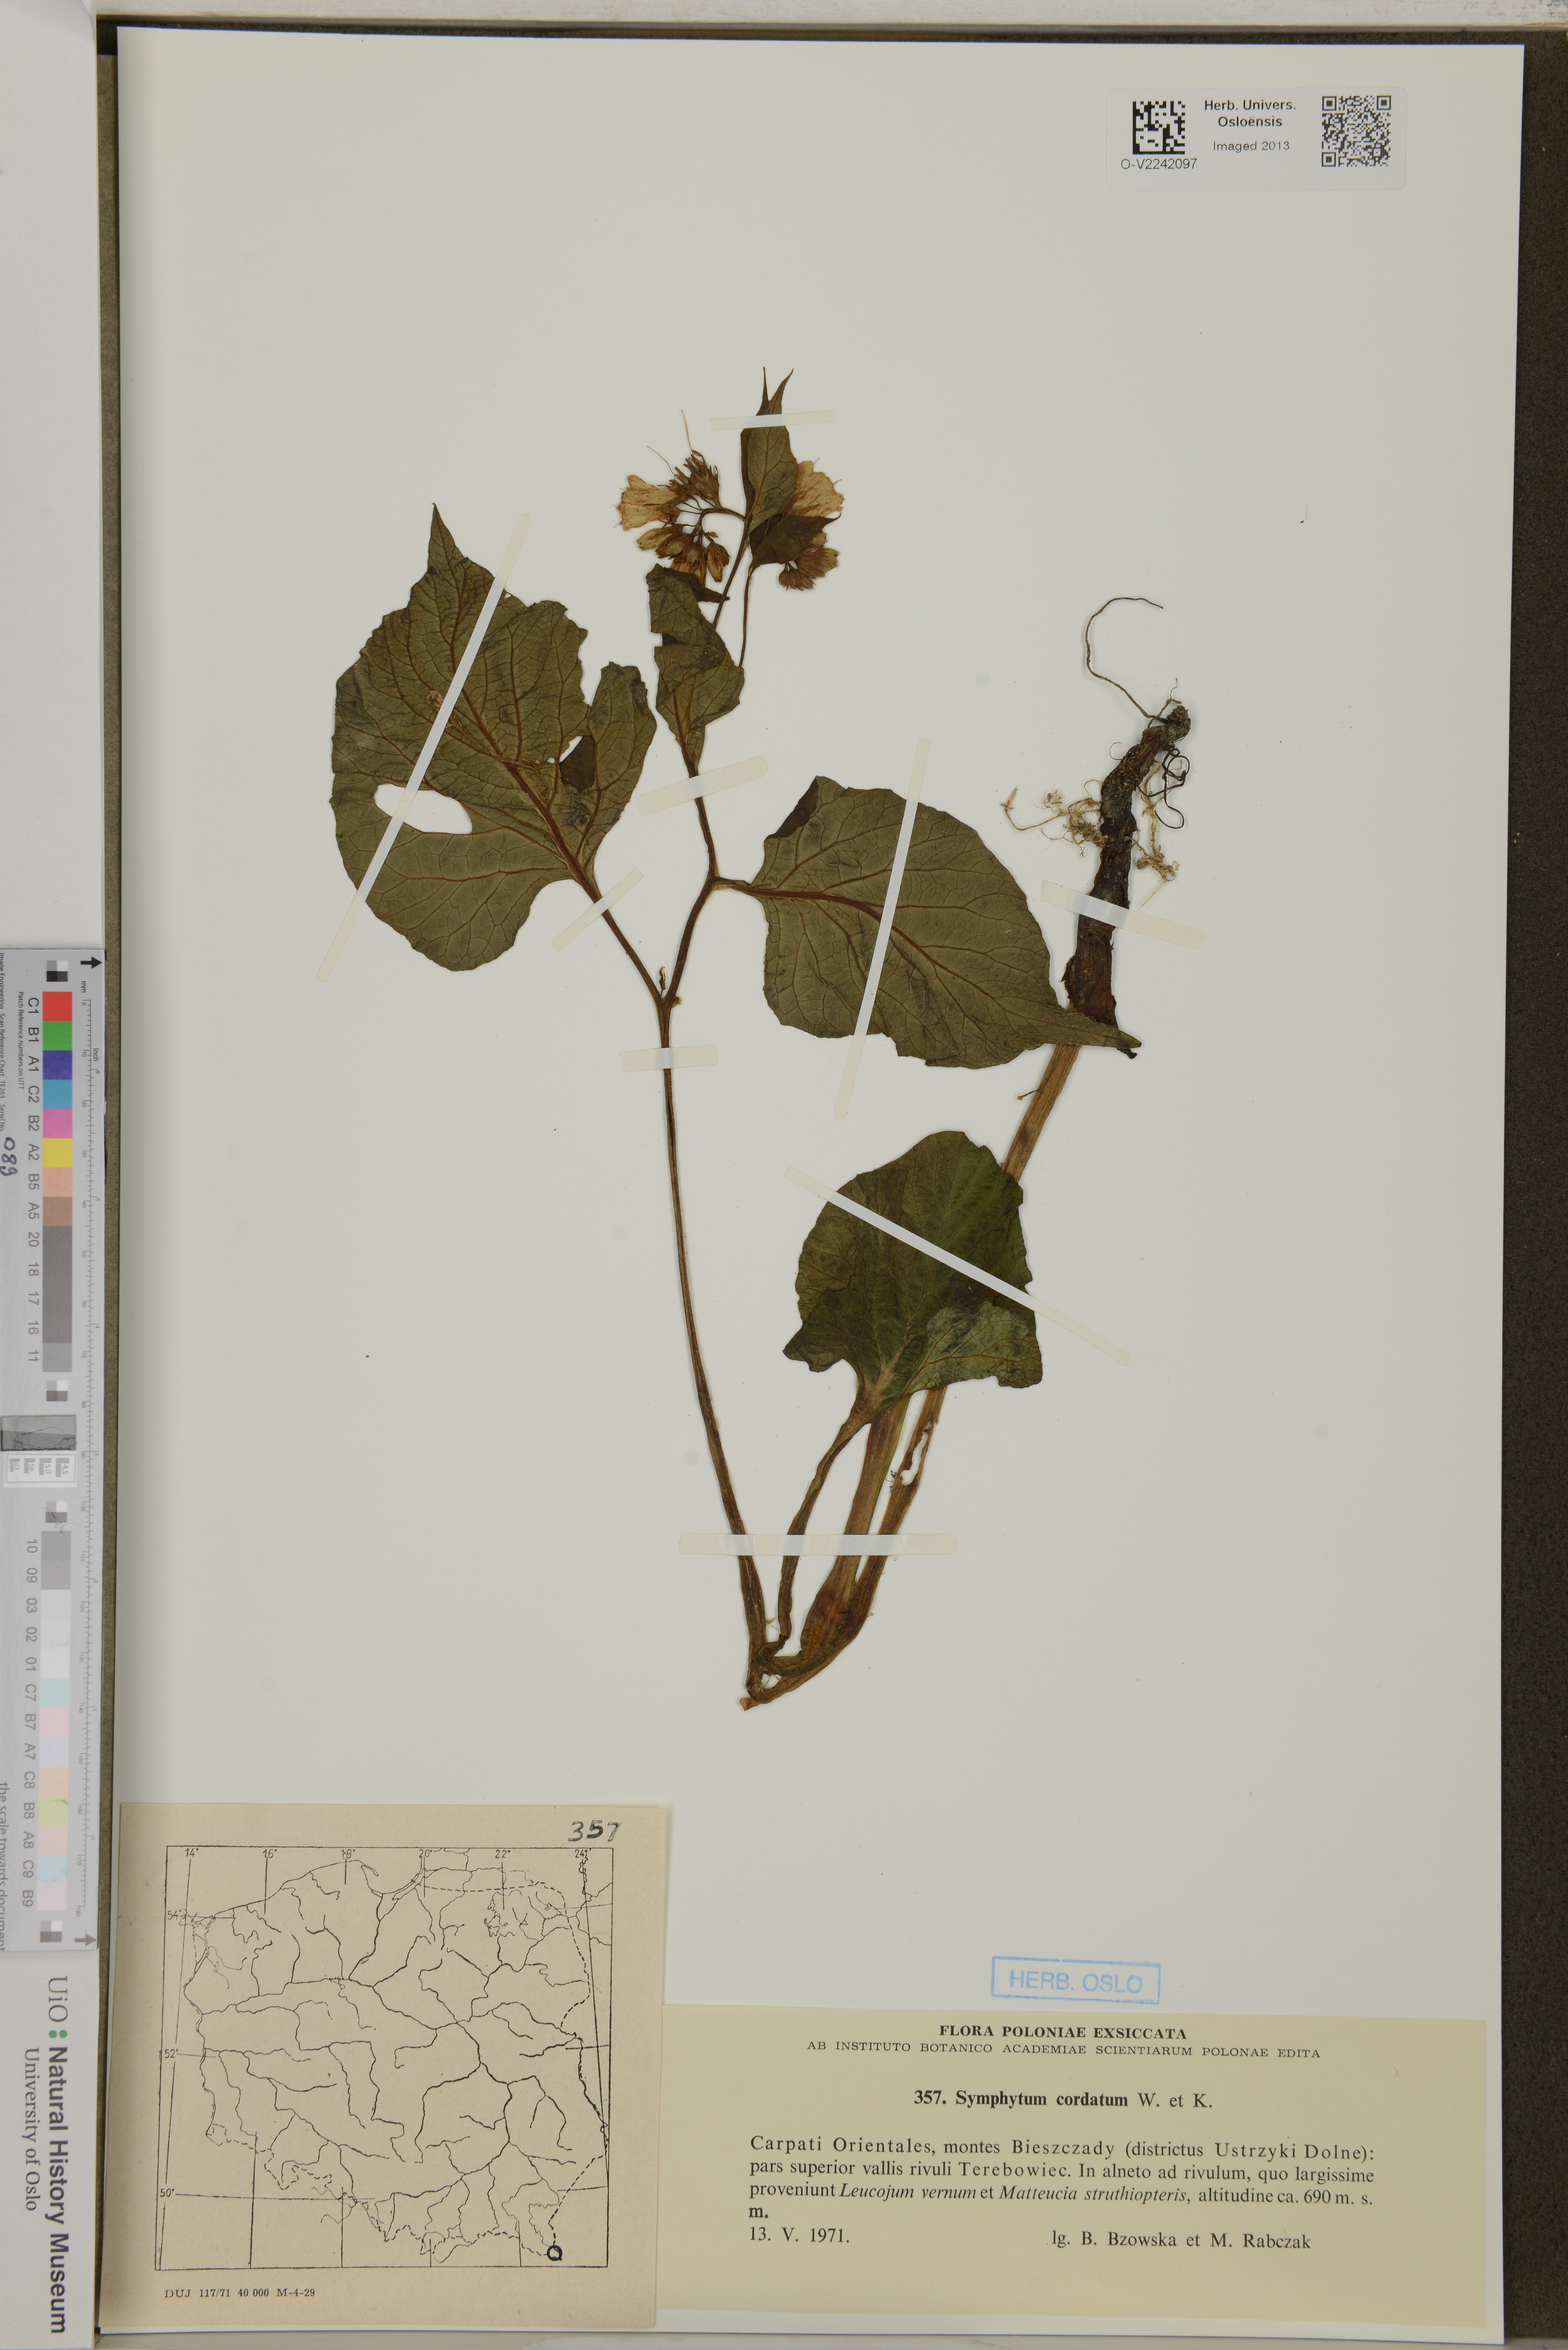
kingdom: Plantae
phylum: Tracheophyta
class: Magnoliopsida
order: Boraginales
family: Boraginaceae
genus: Symphytum
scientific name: Symphytum cordatum
